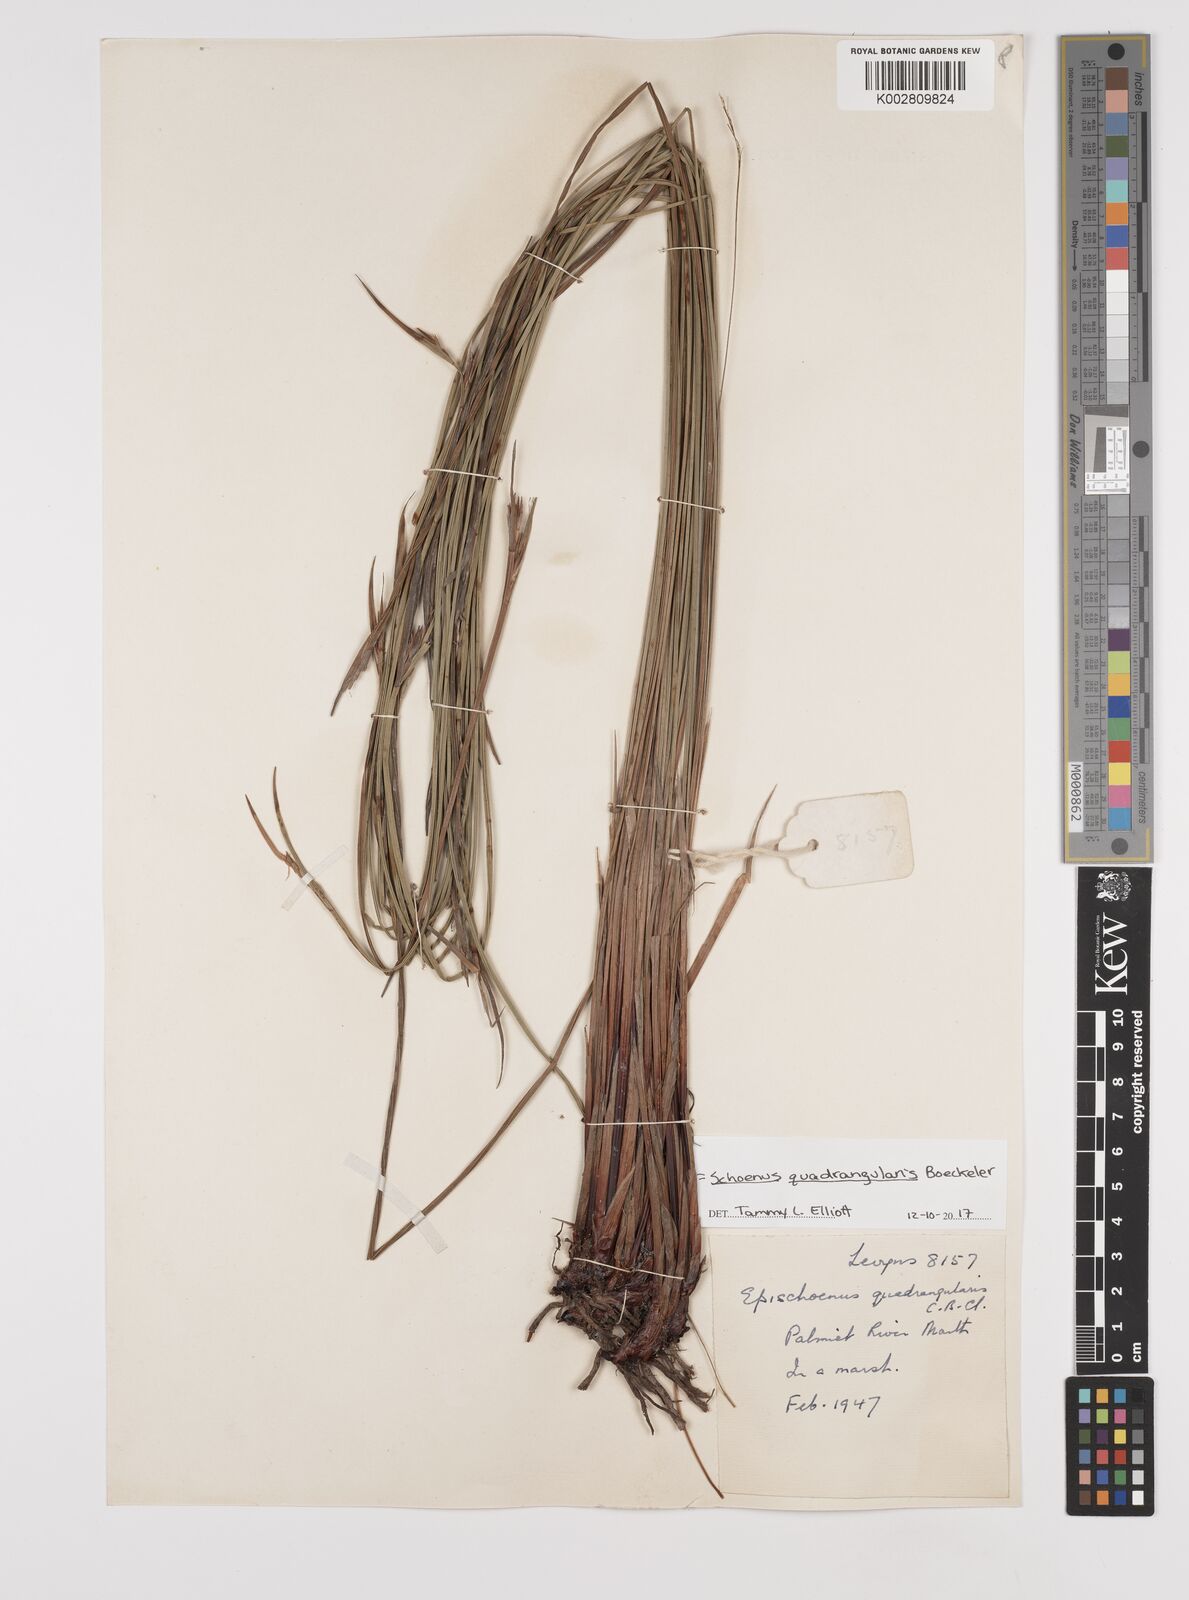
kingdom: Plantae
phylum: Tracheophyta
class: Liliopsida
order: Poales
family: Cyperaceae
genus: Schoenus
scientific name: Schoenus quadrangularis
